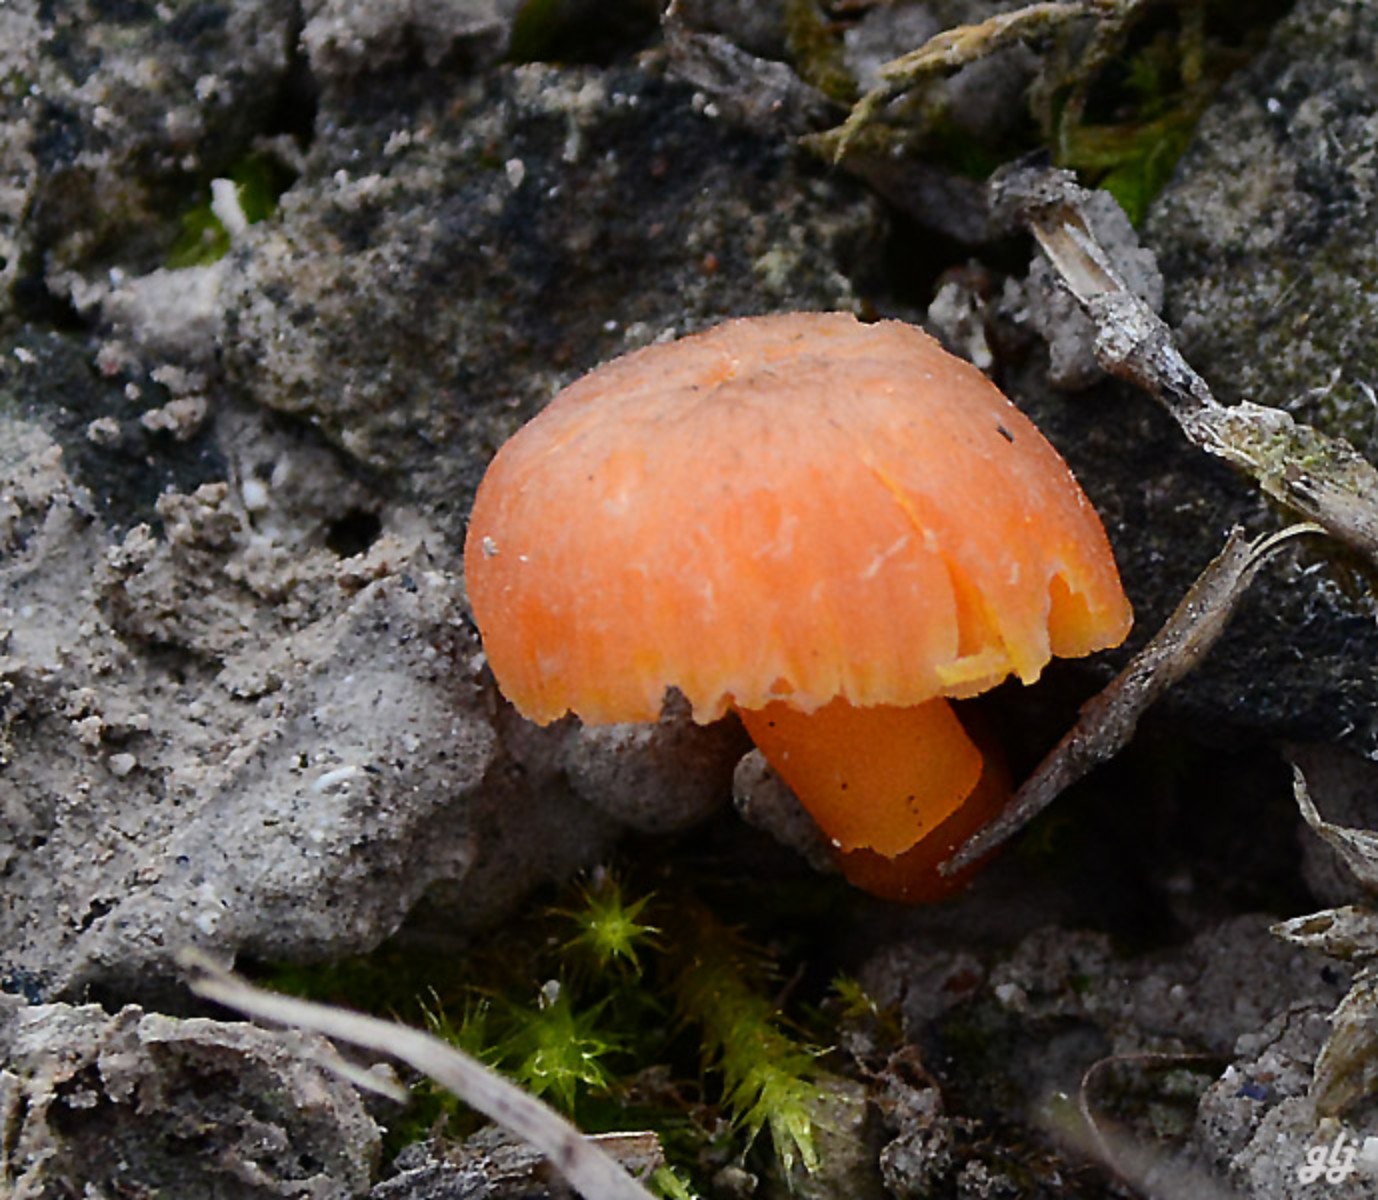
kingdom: Fungi
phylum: Basidiomycota
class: Agaricomycetes
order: Agaricales
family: Hygrophoraceae
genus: Hygrocybe
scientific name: Hygrocybe calciphila
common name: kalk-vokshat
